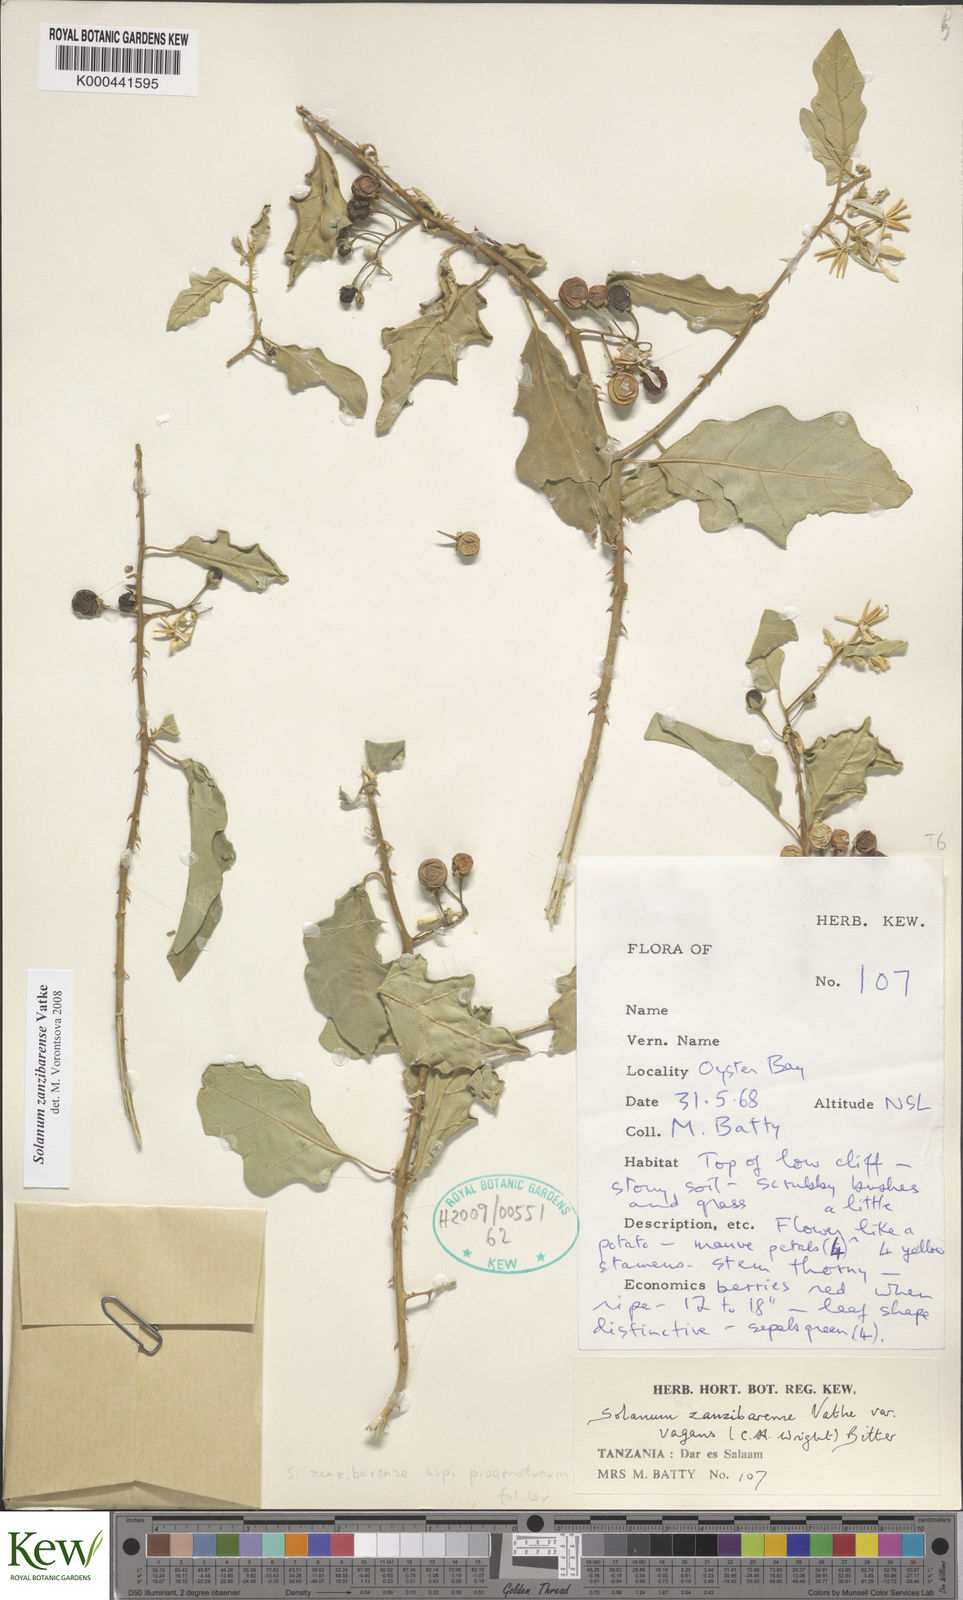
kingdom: Plantae
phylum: Tracheophyta
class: Magnoliopsida
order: Solanales
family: Solanaceae
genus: Solanum
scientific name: Solanum zanzibarense
